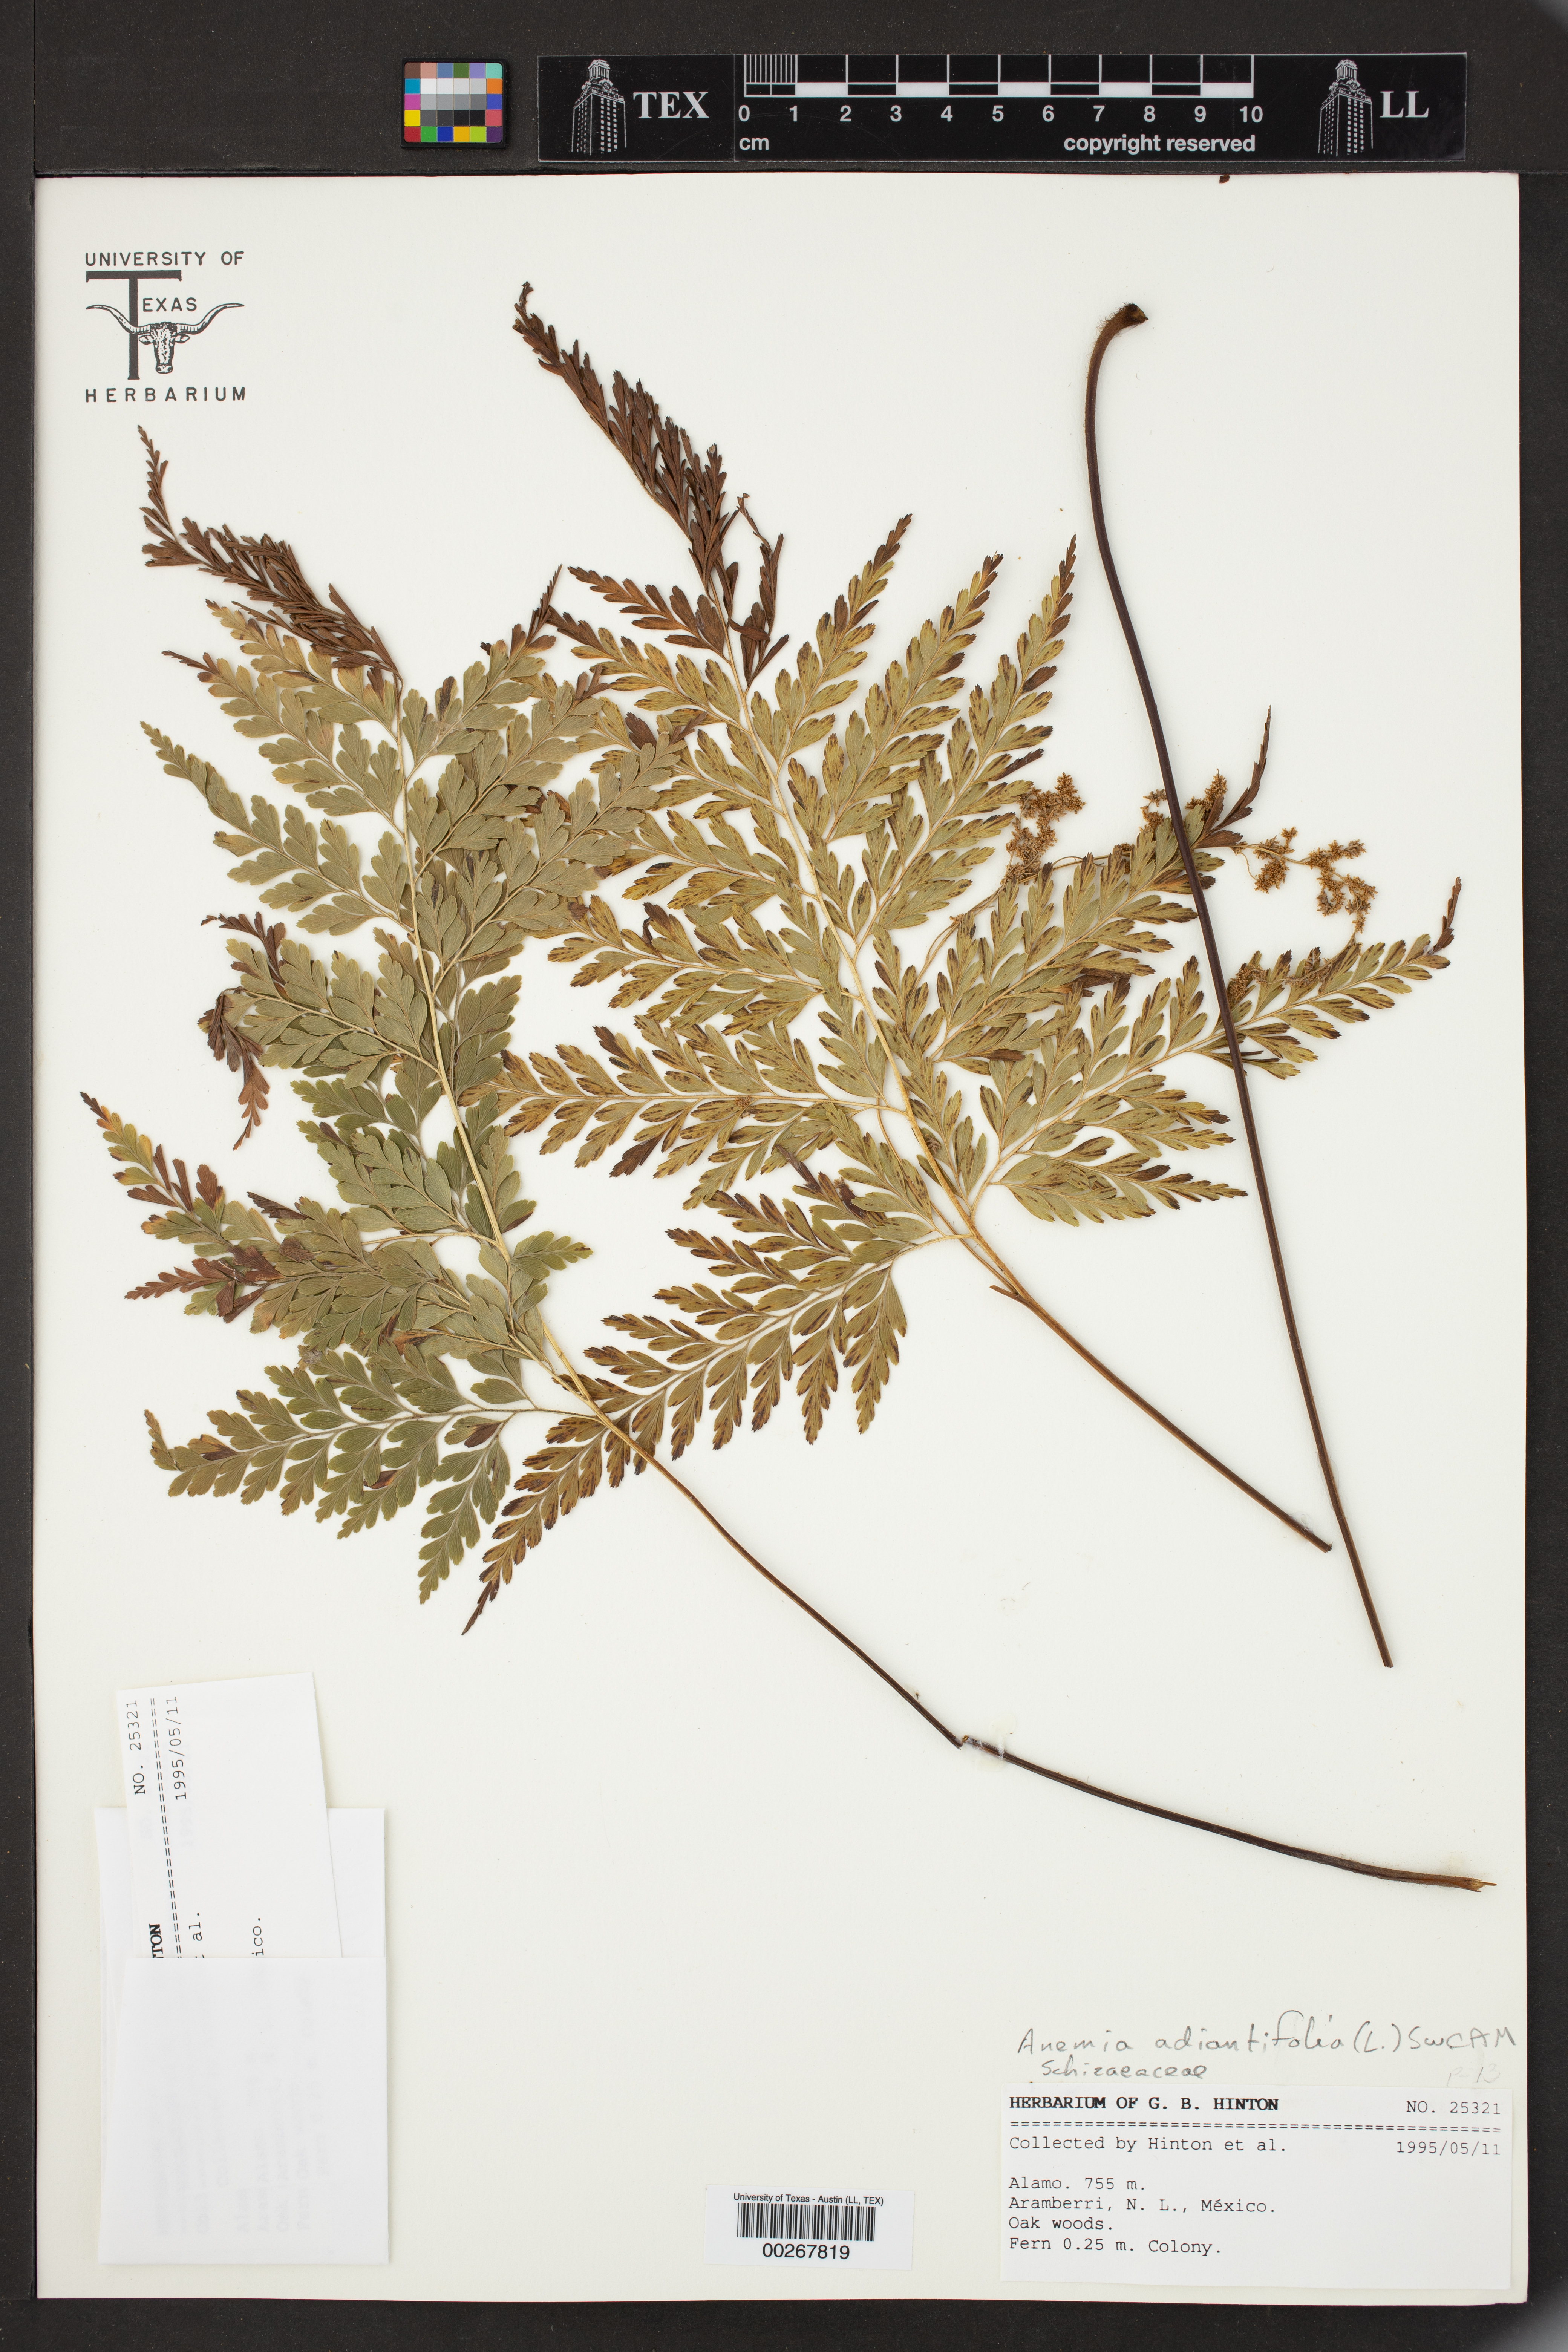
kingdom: Plantae
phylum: Tracheophyta
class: Polypodiopsida
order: Schizaeales
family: Anemiaceae
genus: Anemia
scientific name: Anemia adiantifolia
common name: Pine fern
